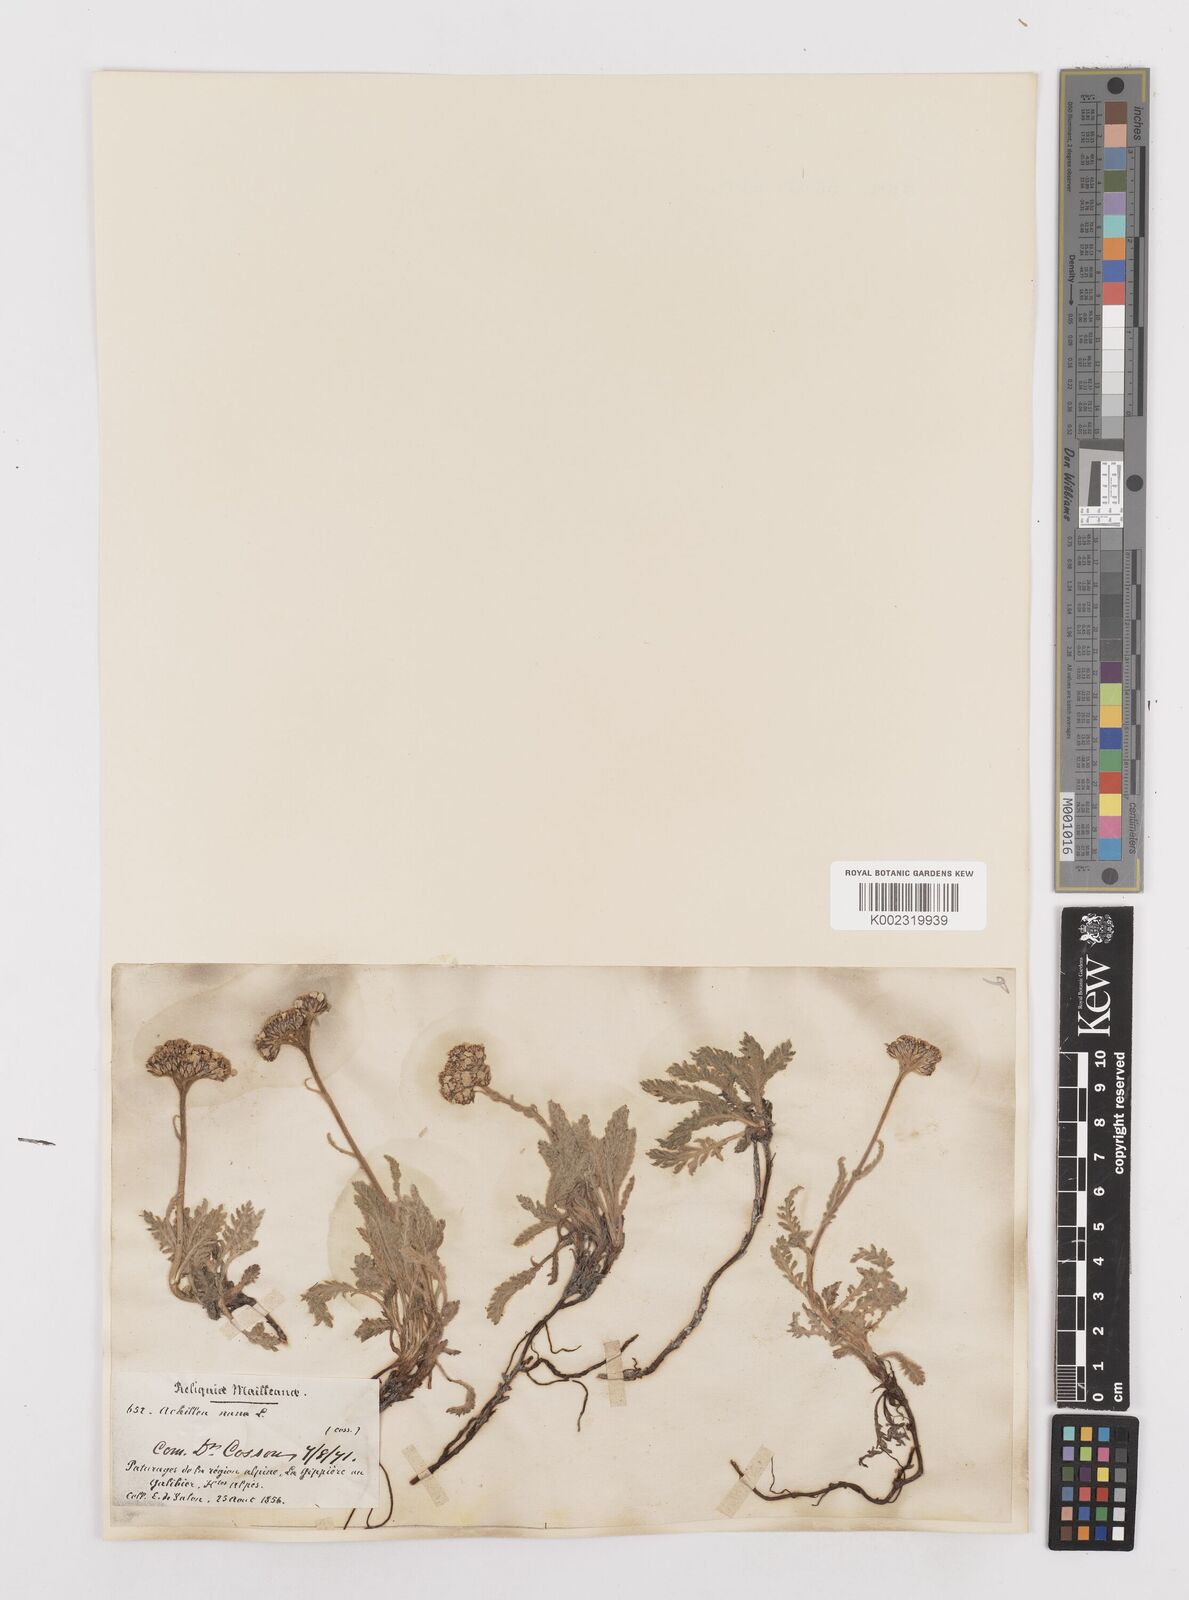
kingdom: Plantae
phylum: Tracheophyta
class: Magnoliopsida
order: Asterales
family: Asteraceae
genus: Achillea
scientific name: Achillea
